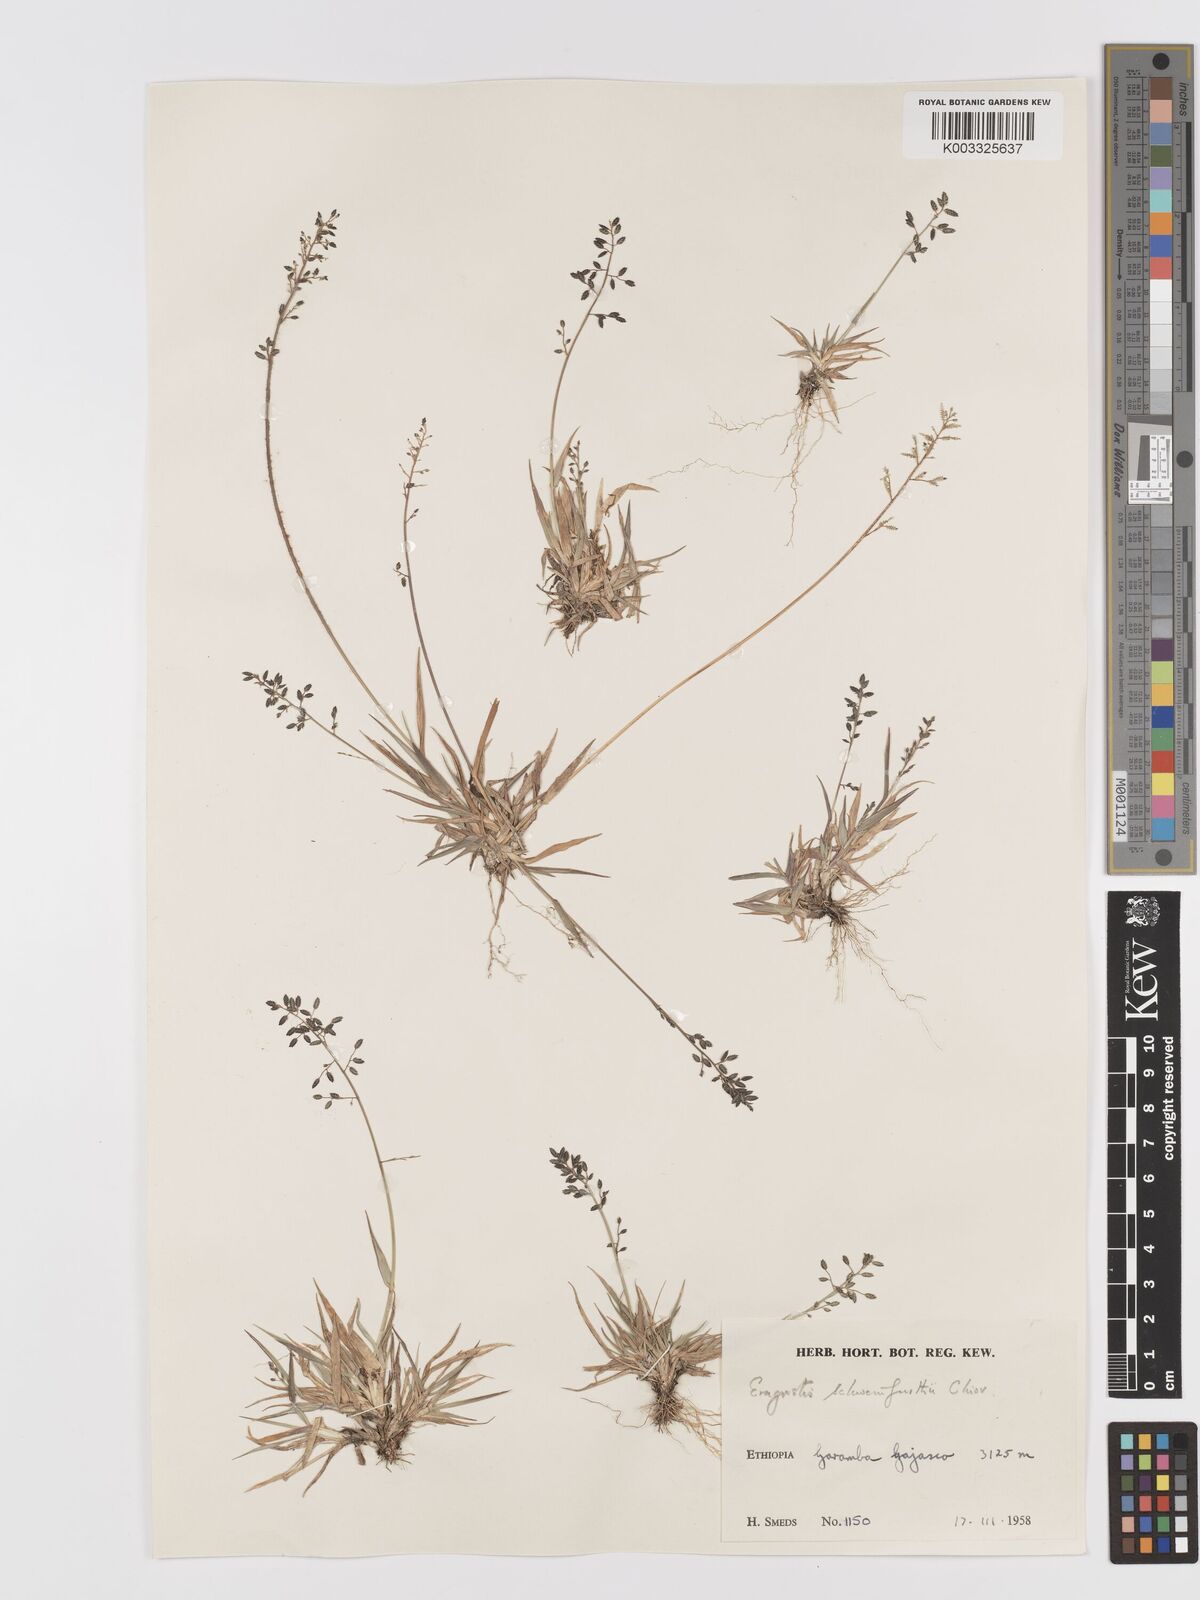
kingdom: Plantae
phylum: Tracheophyta
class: Liliopsida
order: Poales
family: Poaceae
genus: Eragrostis
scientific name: Eragrostis schweinfurthii
